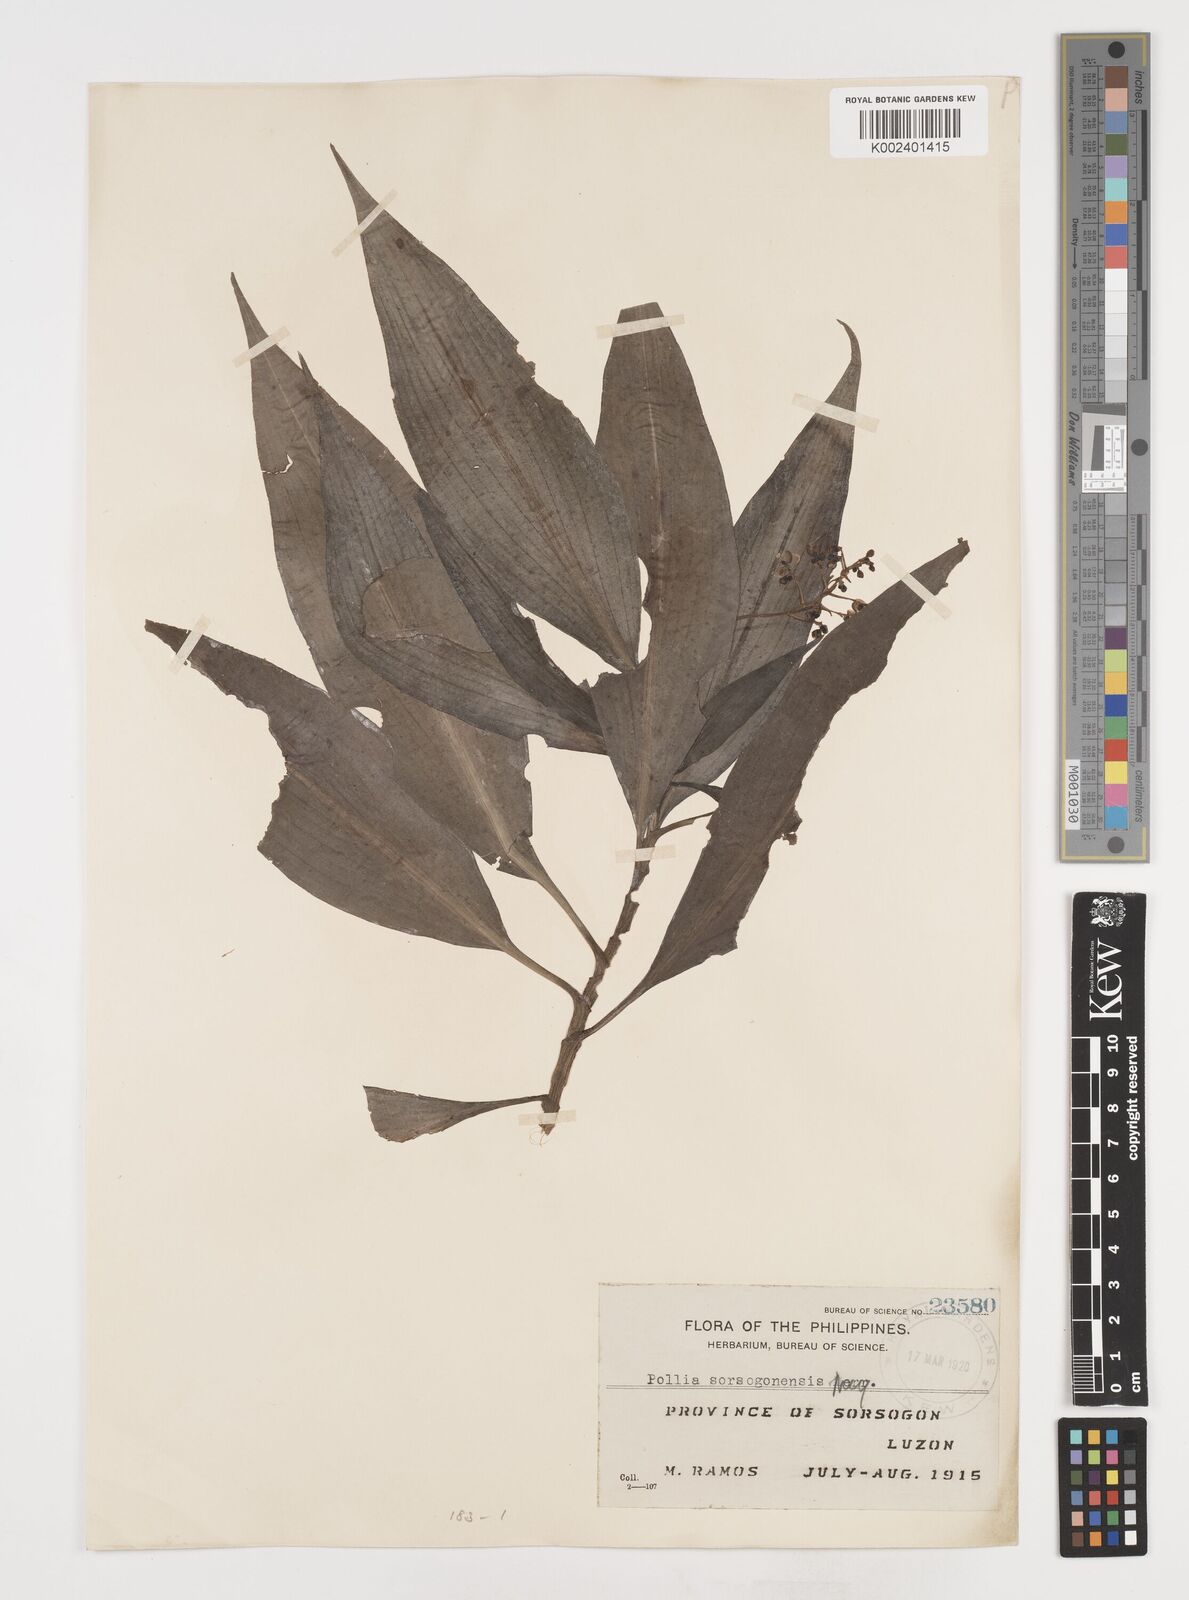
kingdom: Plantae
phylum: Tracheophyta
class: Liliopsida
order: Commelinales
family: Commelinaceae
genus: Pollia
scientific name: Pollia secundiflora
